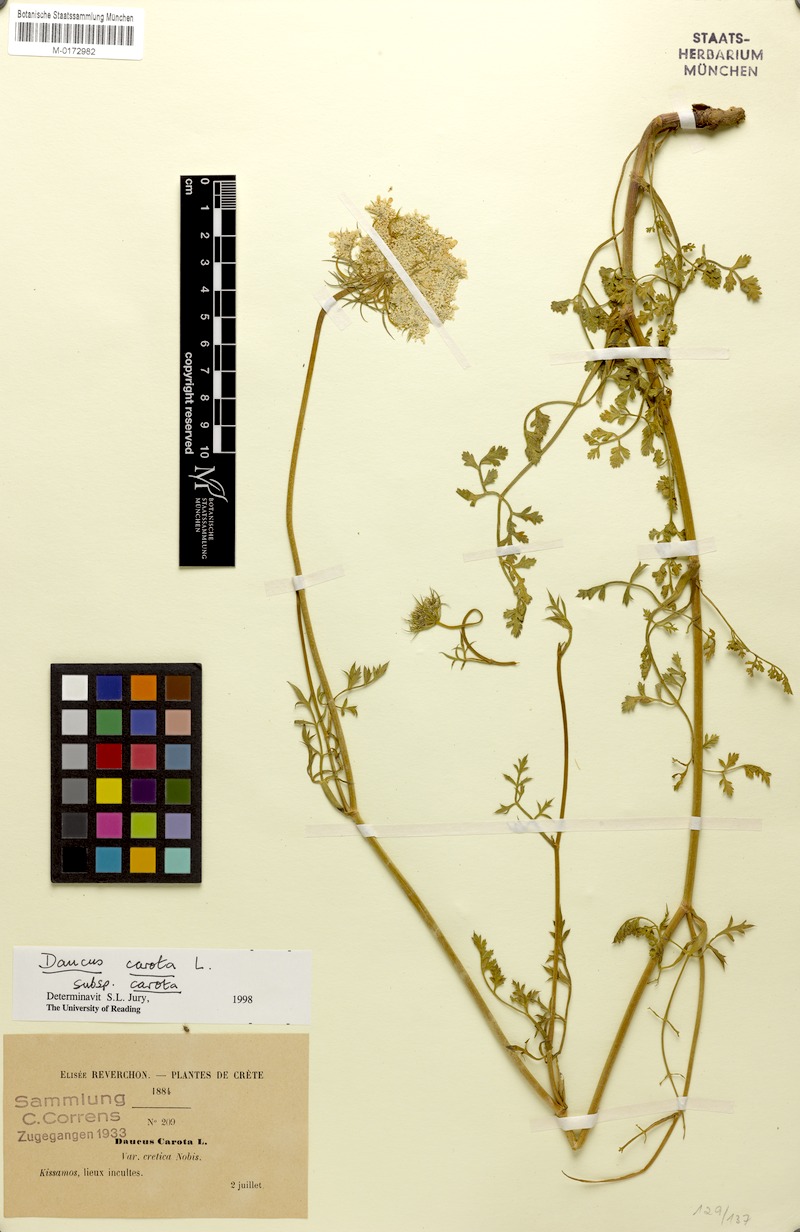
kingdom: Plantae
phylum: Tracheophyta
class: Magnoliopsida
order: Apiales
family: Apiaceae
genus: Daucus
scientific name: Daucus carota
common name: Wild carrot
